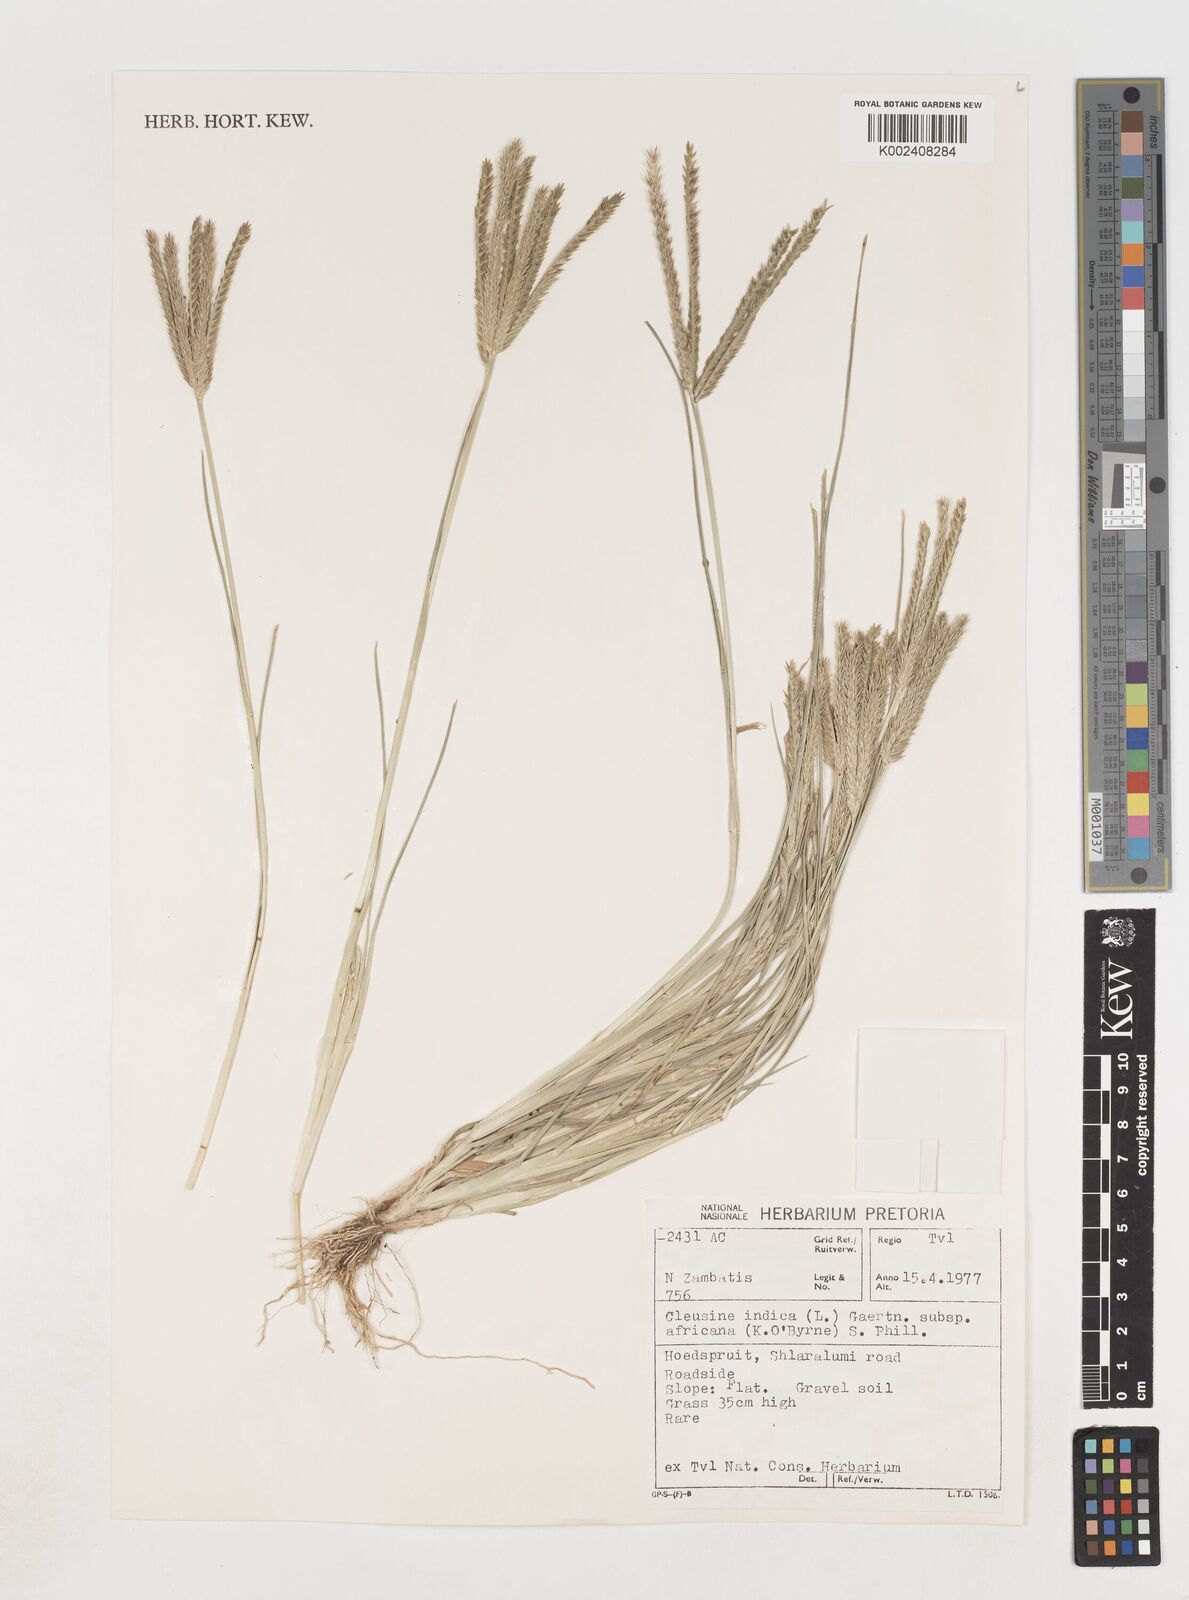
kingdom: Plantae
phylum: Tracheophyta
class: Liliopsida
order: Poales
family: Poaceae
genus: Eleusine
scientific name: Eleusine africana
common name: Wild african finger millet
